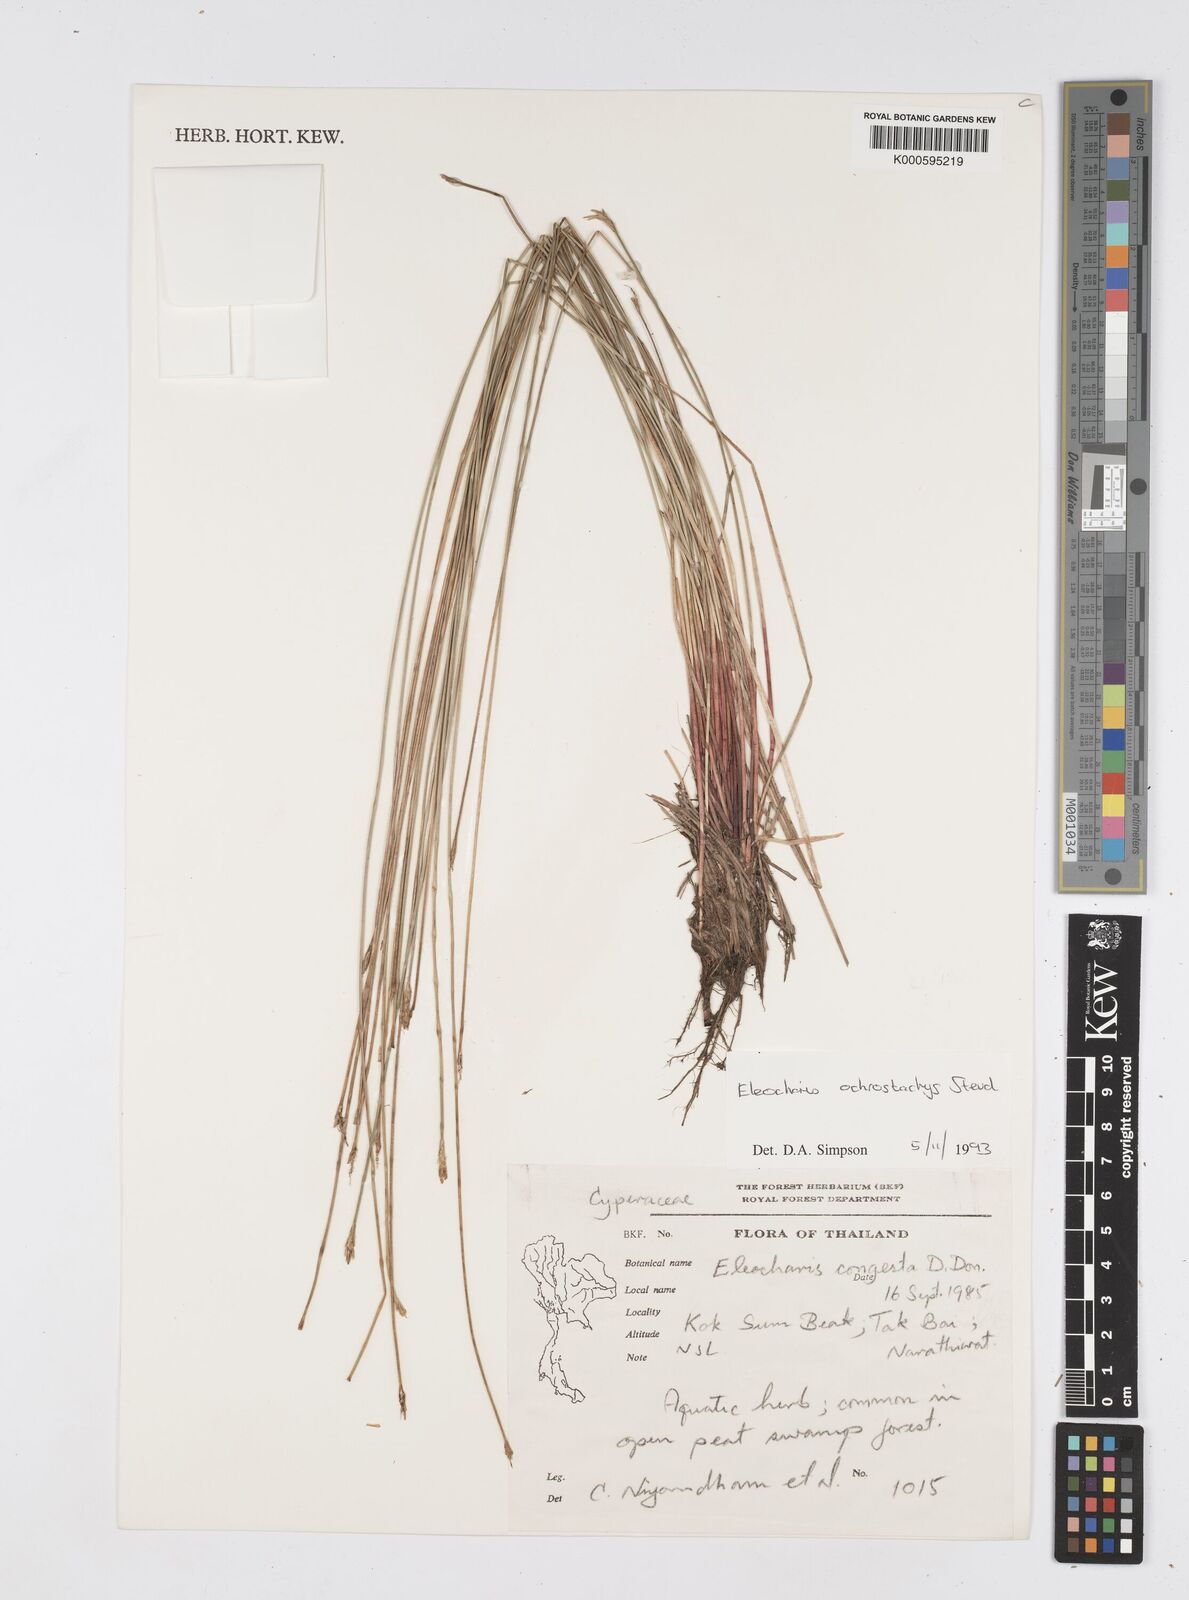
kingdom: Plantae
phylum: Tracheophyta
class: Liliopsida
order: Poales
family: Cyperaceae
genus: Eleocharis
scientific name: Eleocharis ochrostachys
